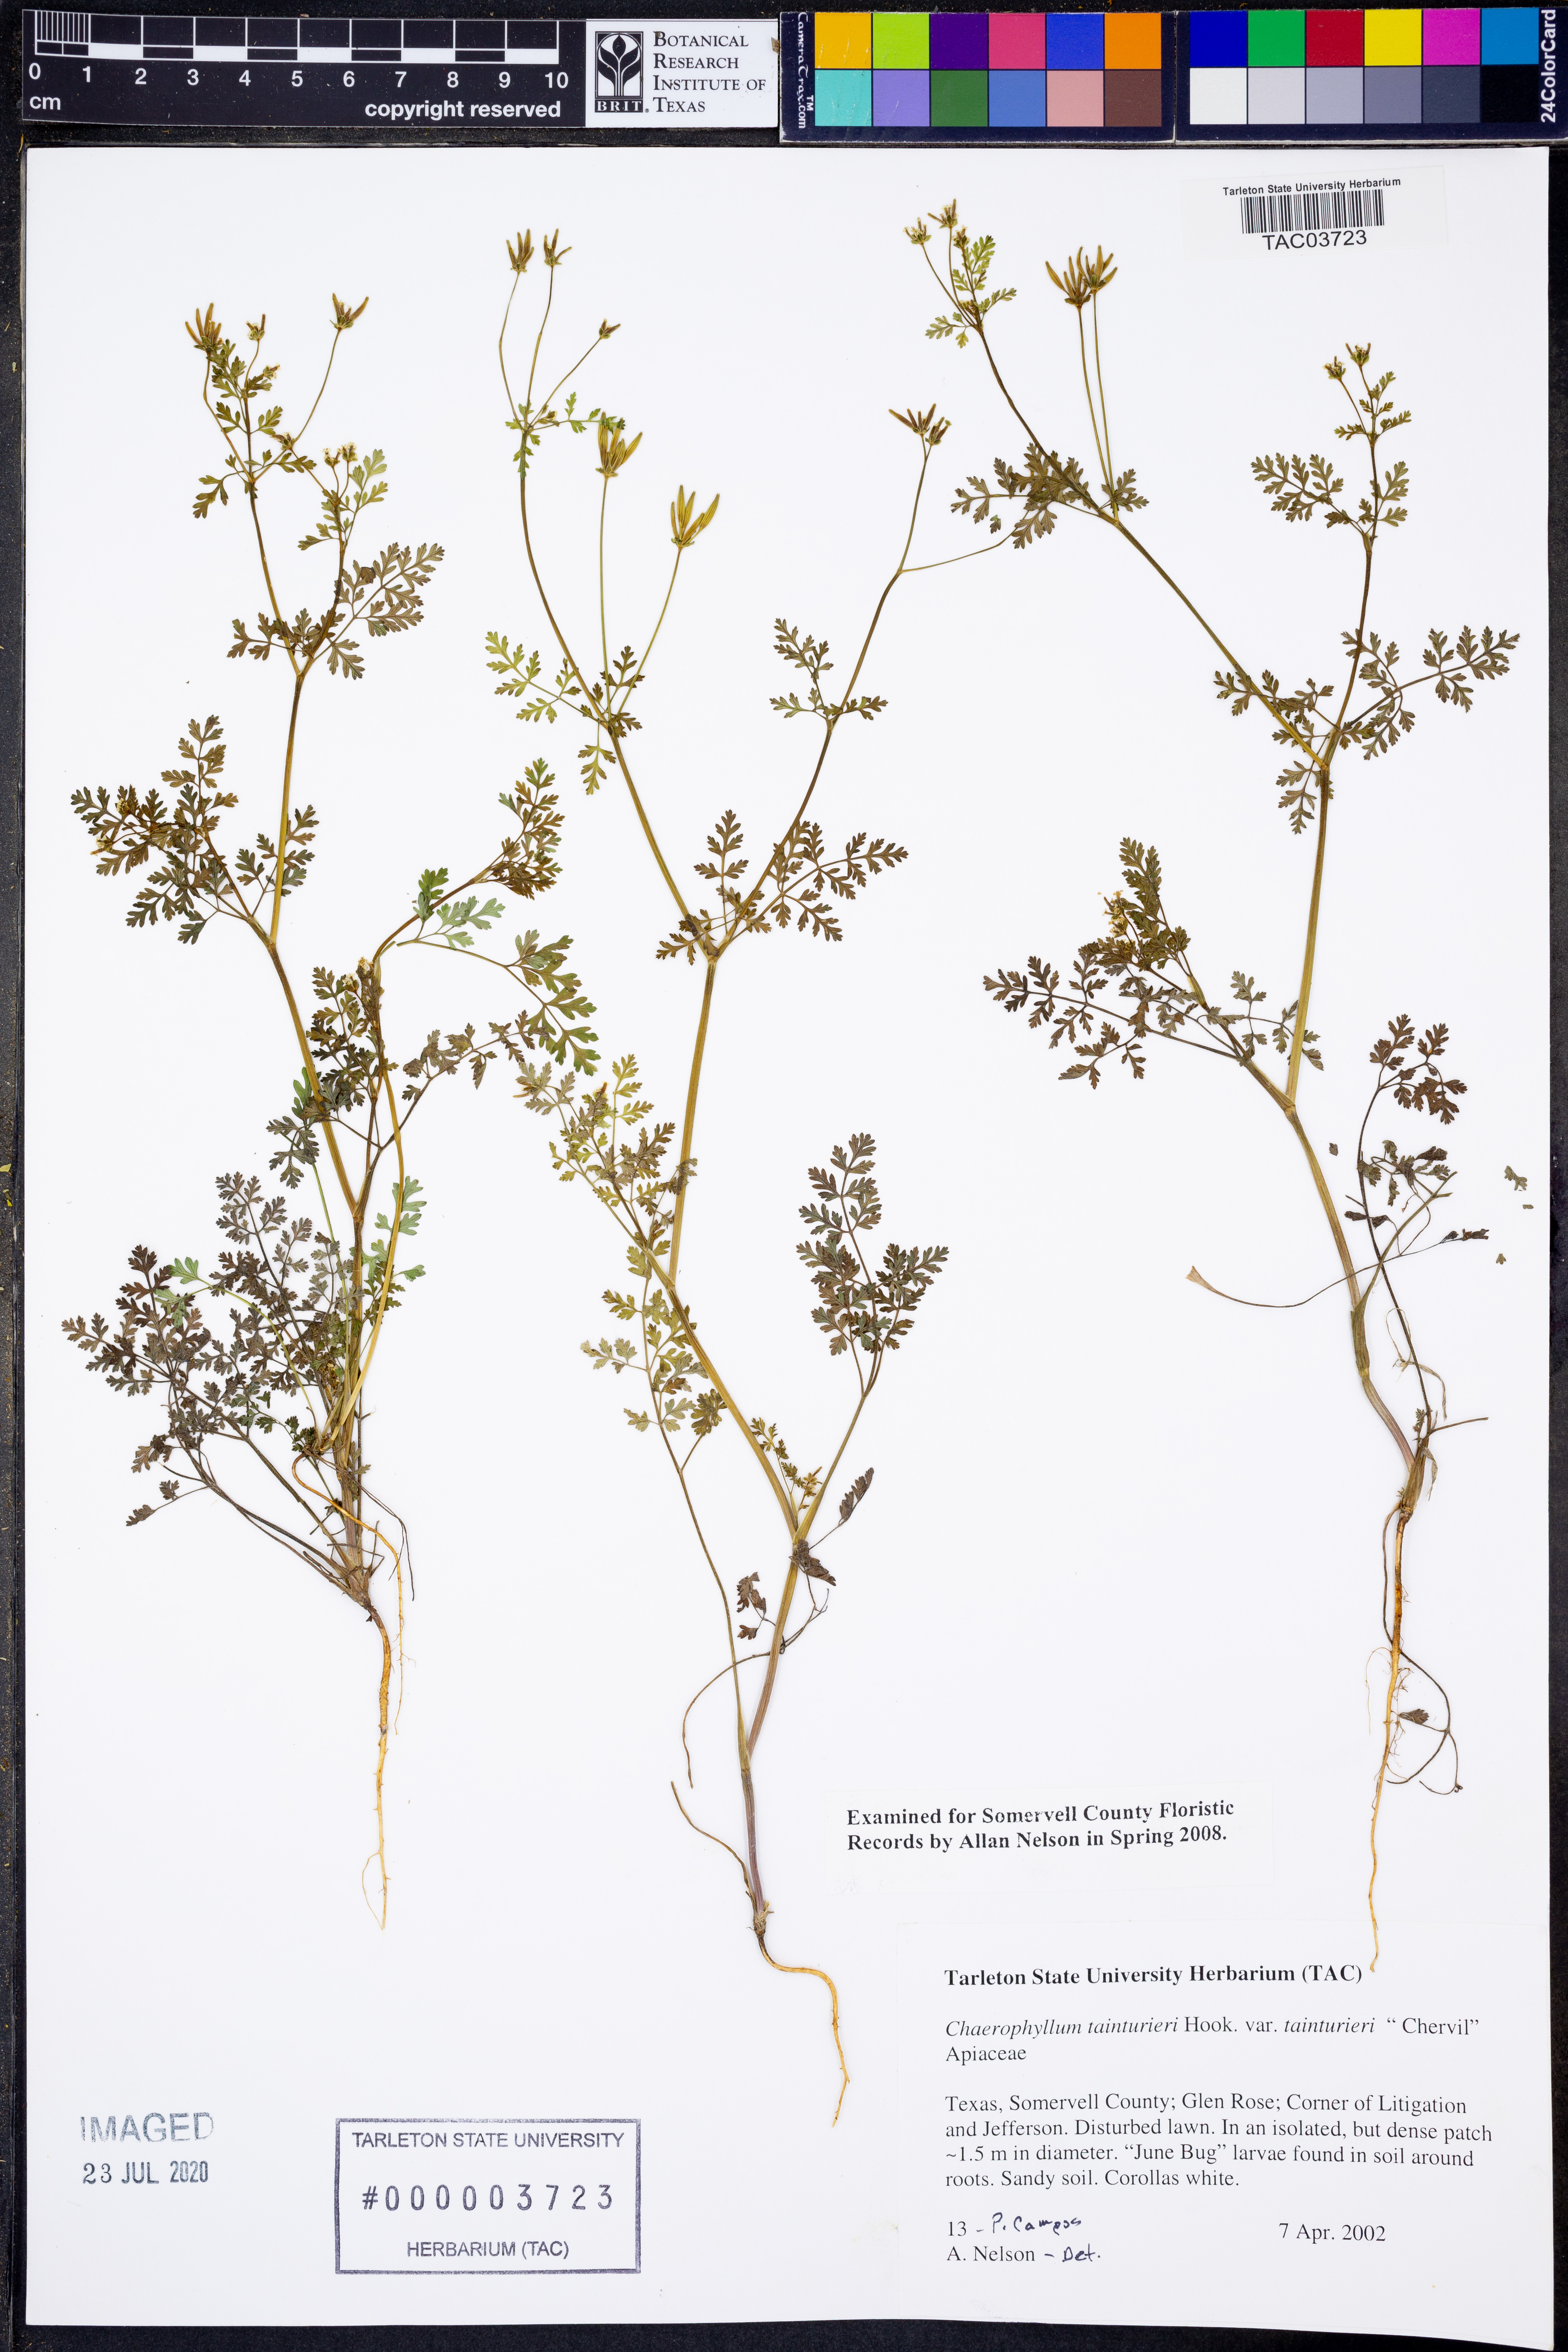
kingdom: Plantae
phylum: Tracheophyta
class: Magnoliopsida
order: Apiales
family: Apiaceae
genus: Chaerophyllum
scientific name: Chaerophyllum tainturieri
